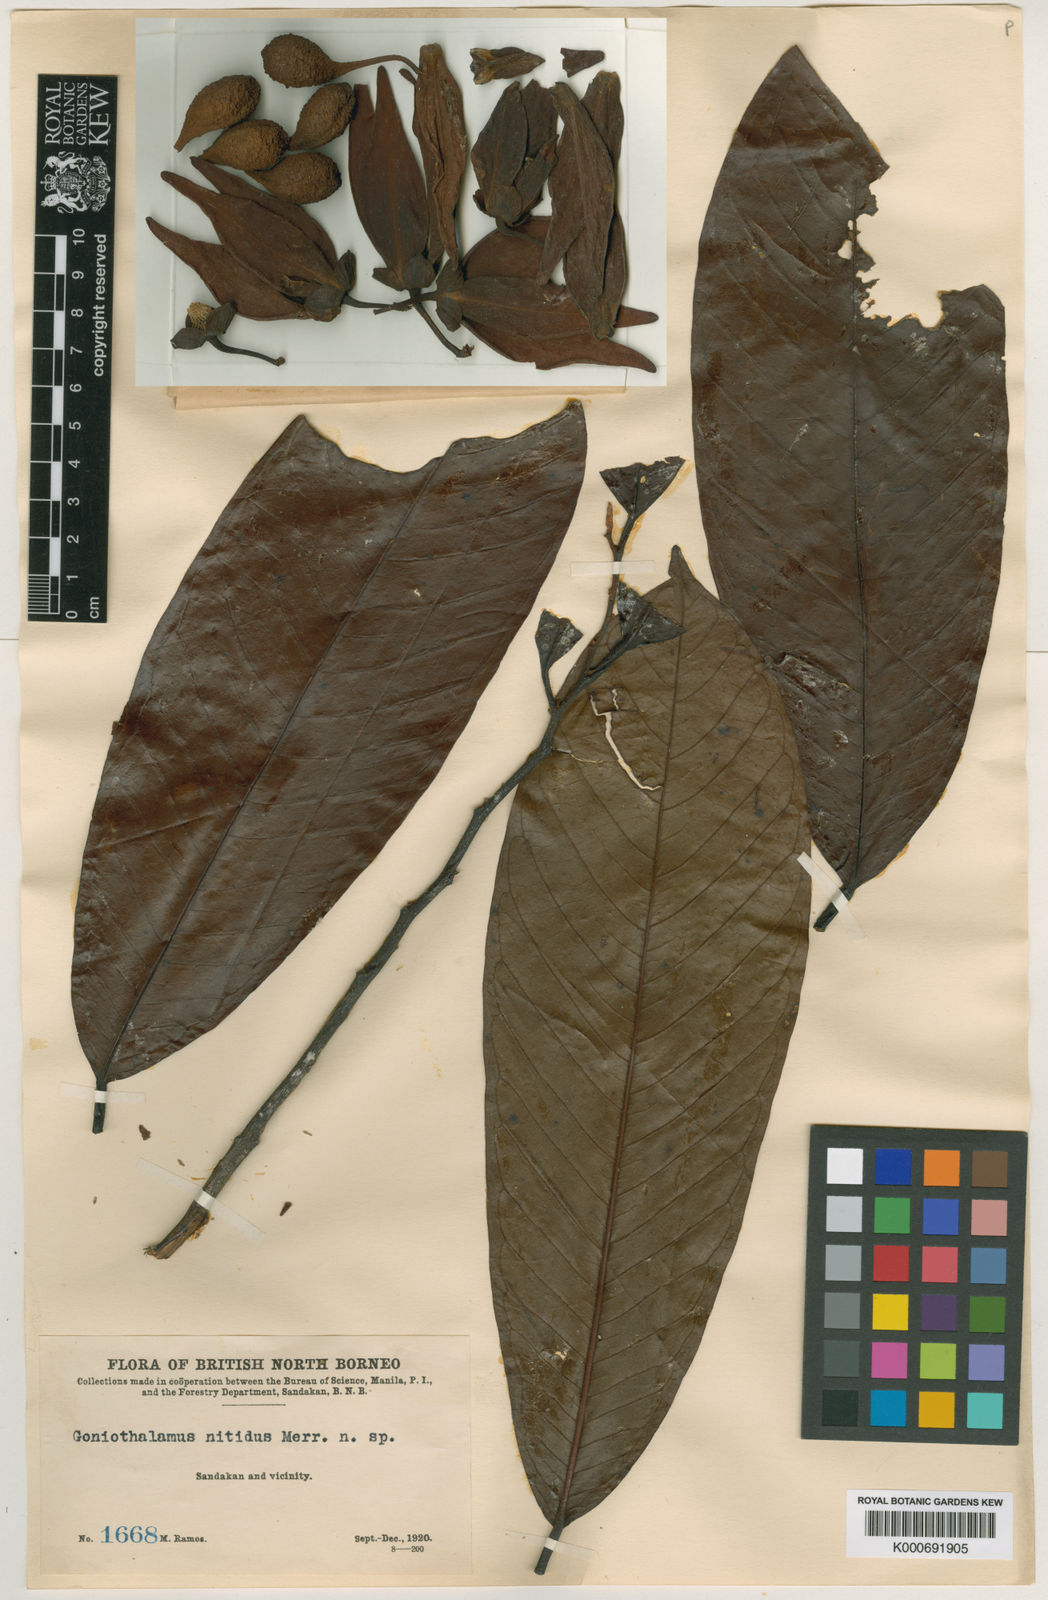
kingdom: Plantae
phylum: Tracheophyta
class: Magnoliopsida
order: Magnoliales
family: Annonaceae
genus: Goniothalamus
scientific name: Goniothalamus nitidus
